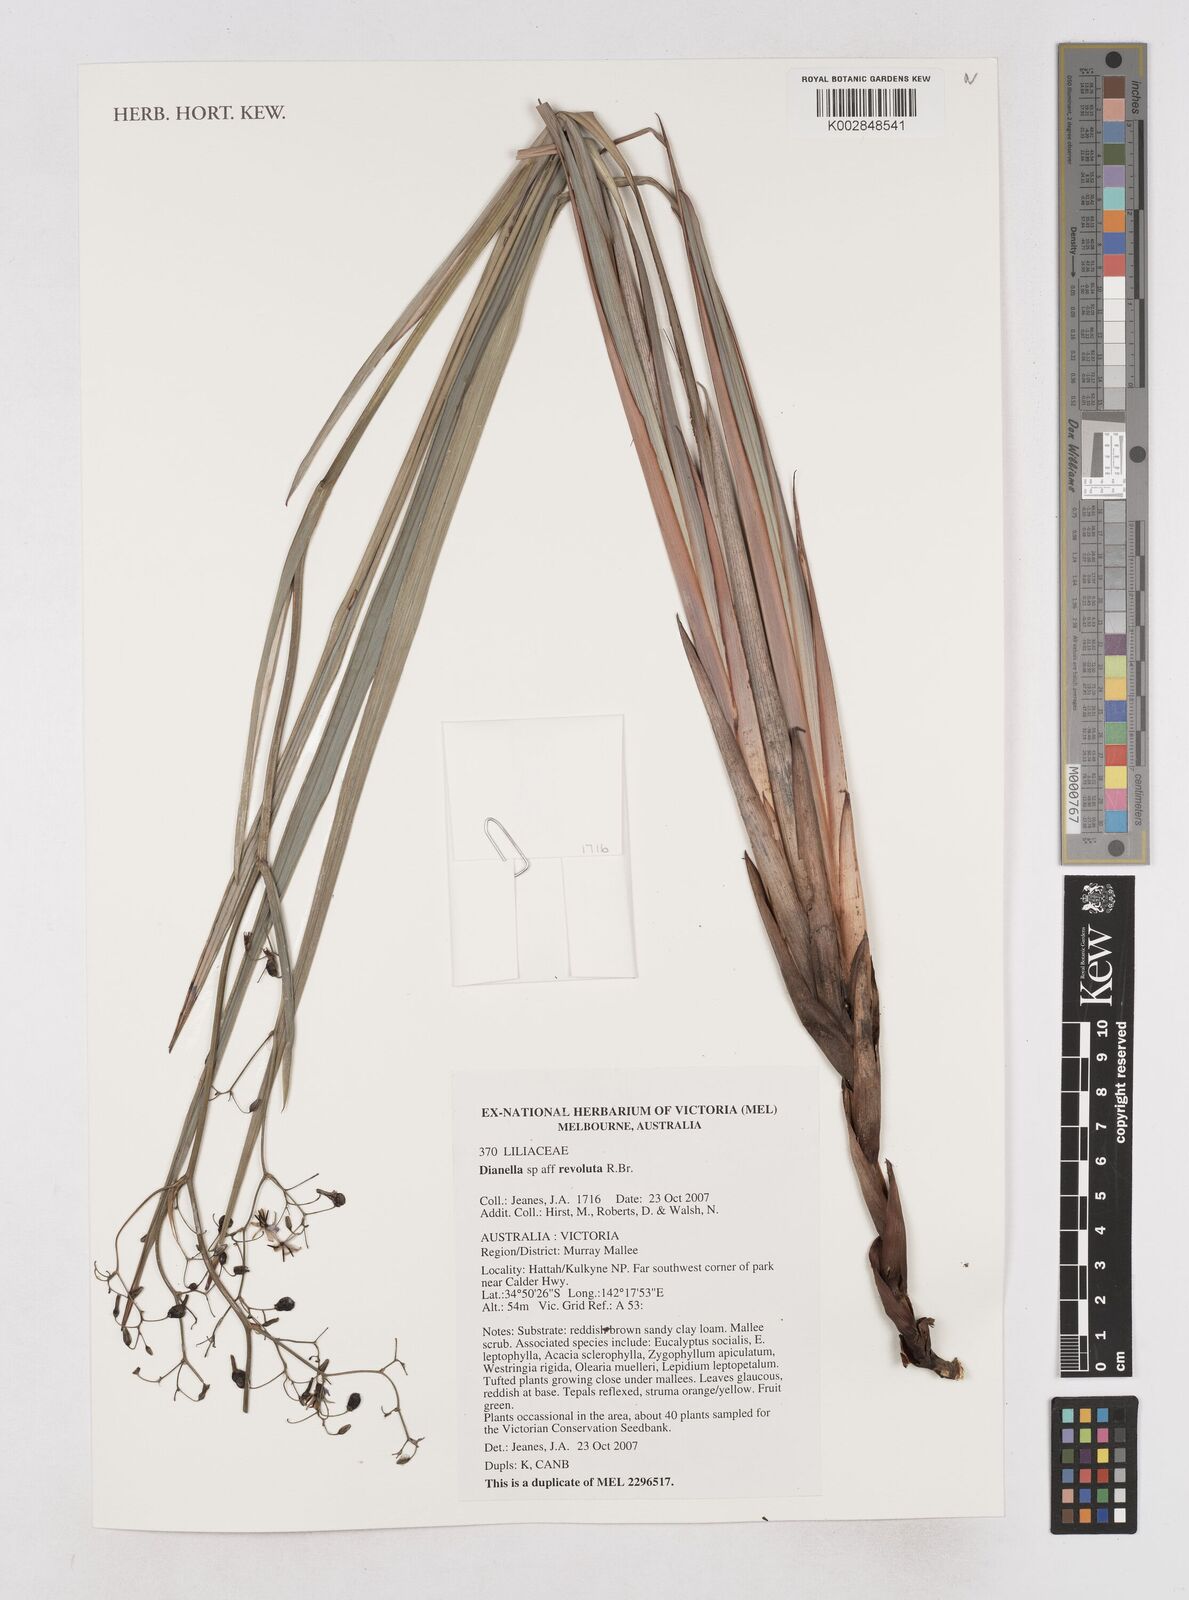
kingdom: Plantae
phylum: Tracheophyta
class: Liliopsida
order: Asparagales
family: Asphodelaceae
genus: Dianella
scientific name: Dianella revoluta
